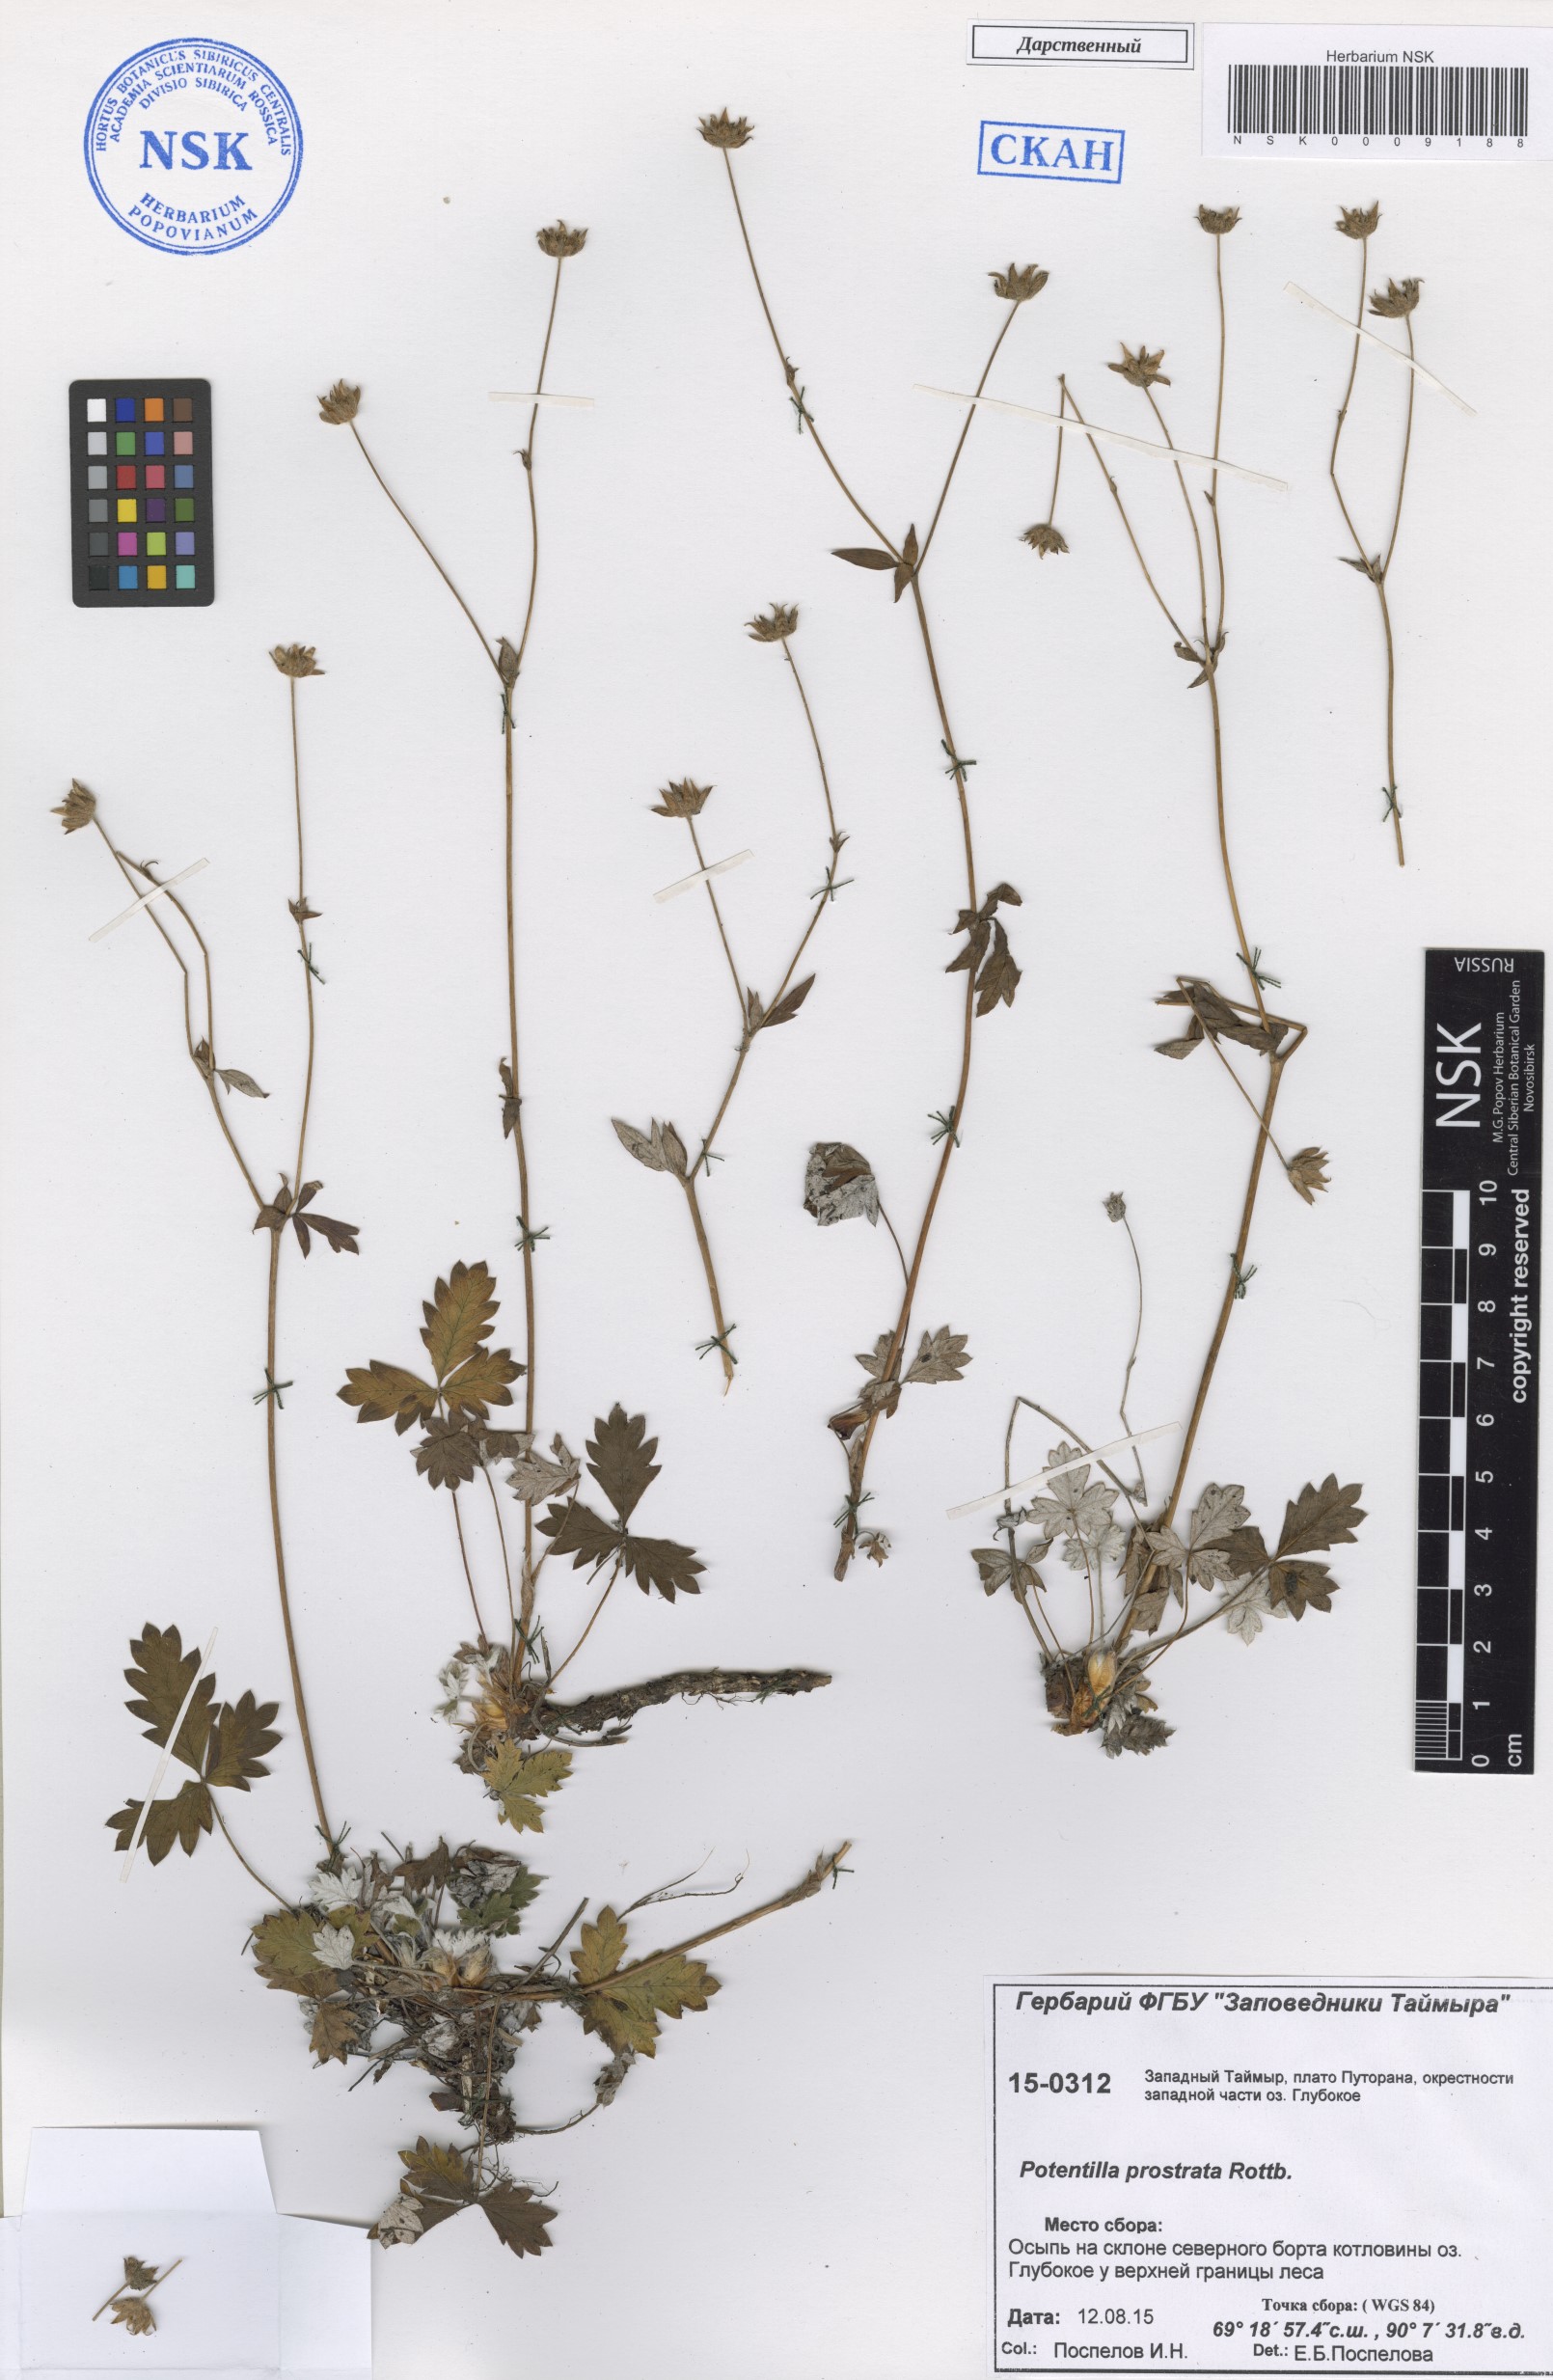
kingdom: Plantae
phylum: Tracheophyta
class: Magnoliopsida
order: Rosales
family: Rosaceae
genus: Potentilla
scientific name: Potentilla prostrata
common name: Prostrate cinquefoil
